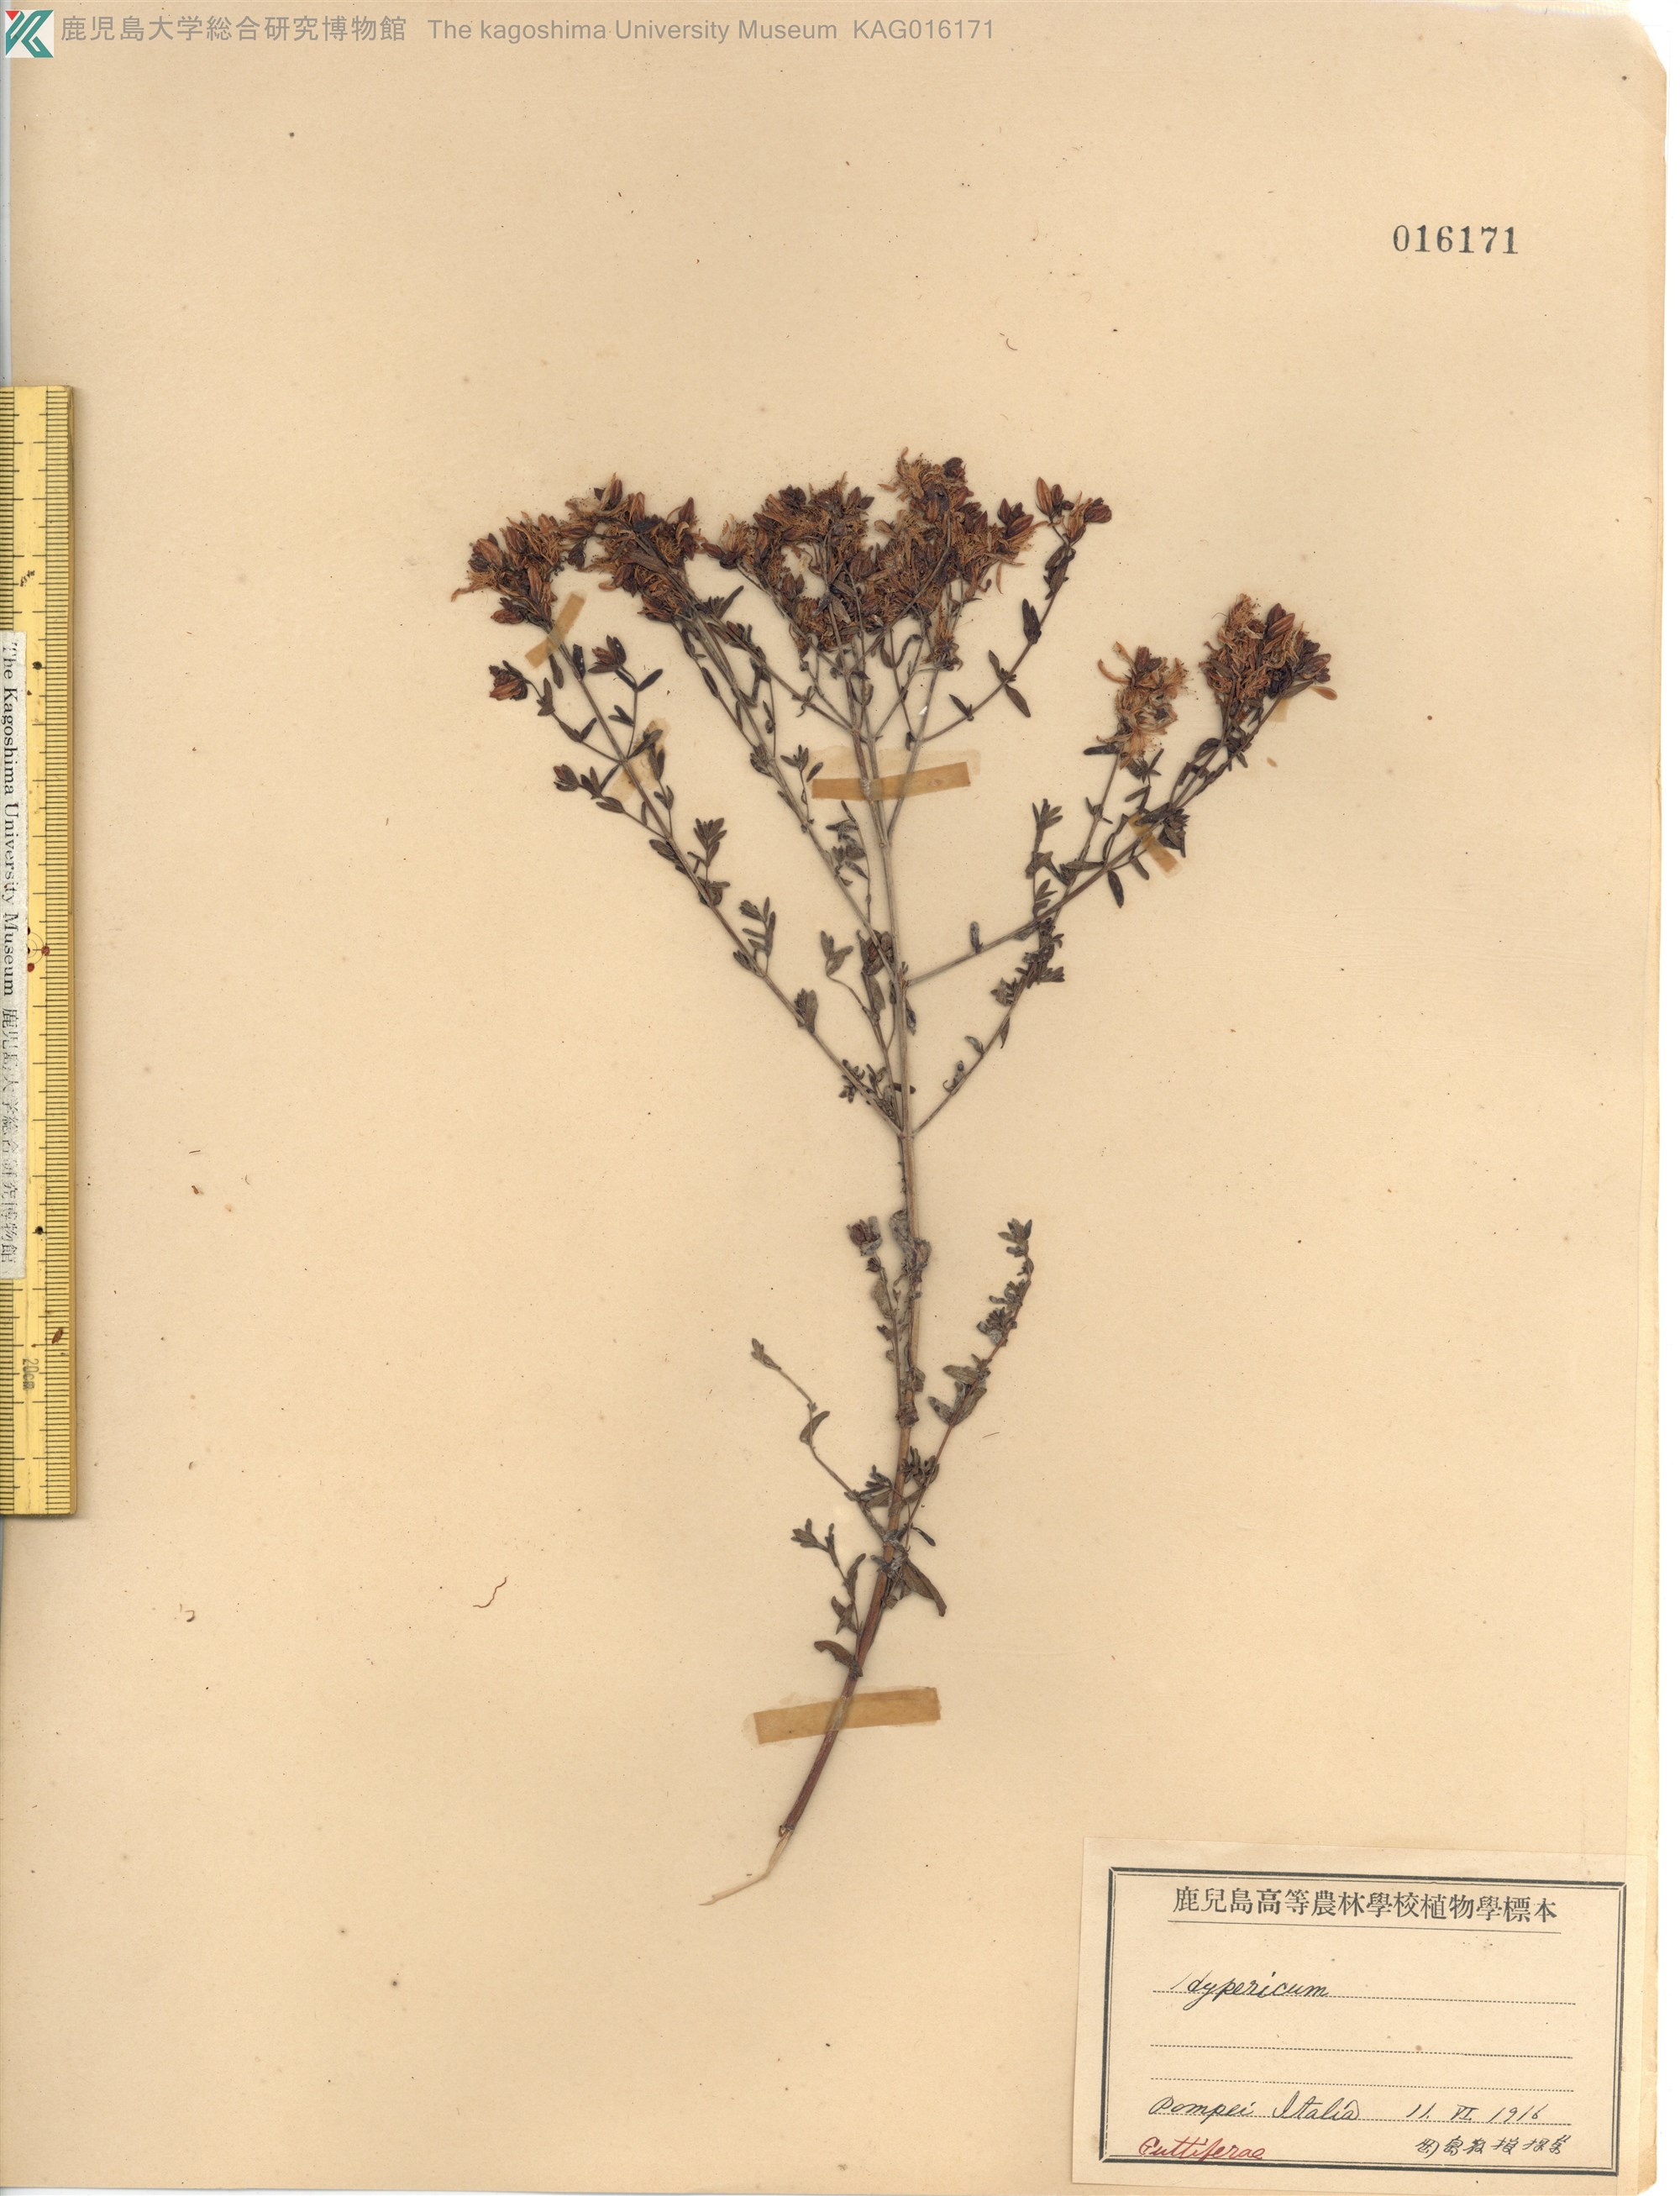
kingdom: Plantae
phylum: Tracheophyta
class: Magnoliopsida
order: Malpighiales
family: Hypericaceae
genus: Hypericum
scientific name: Hypericum
